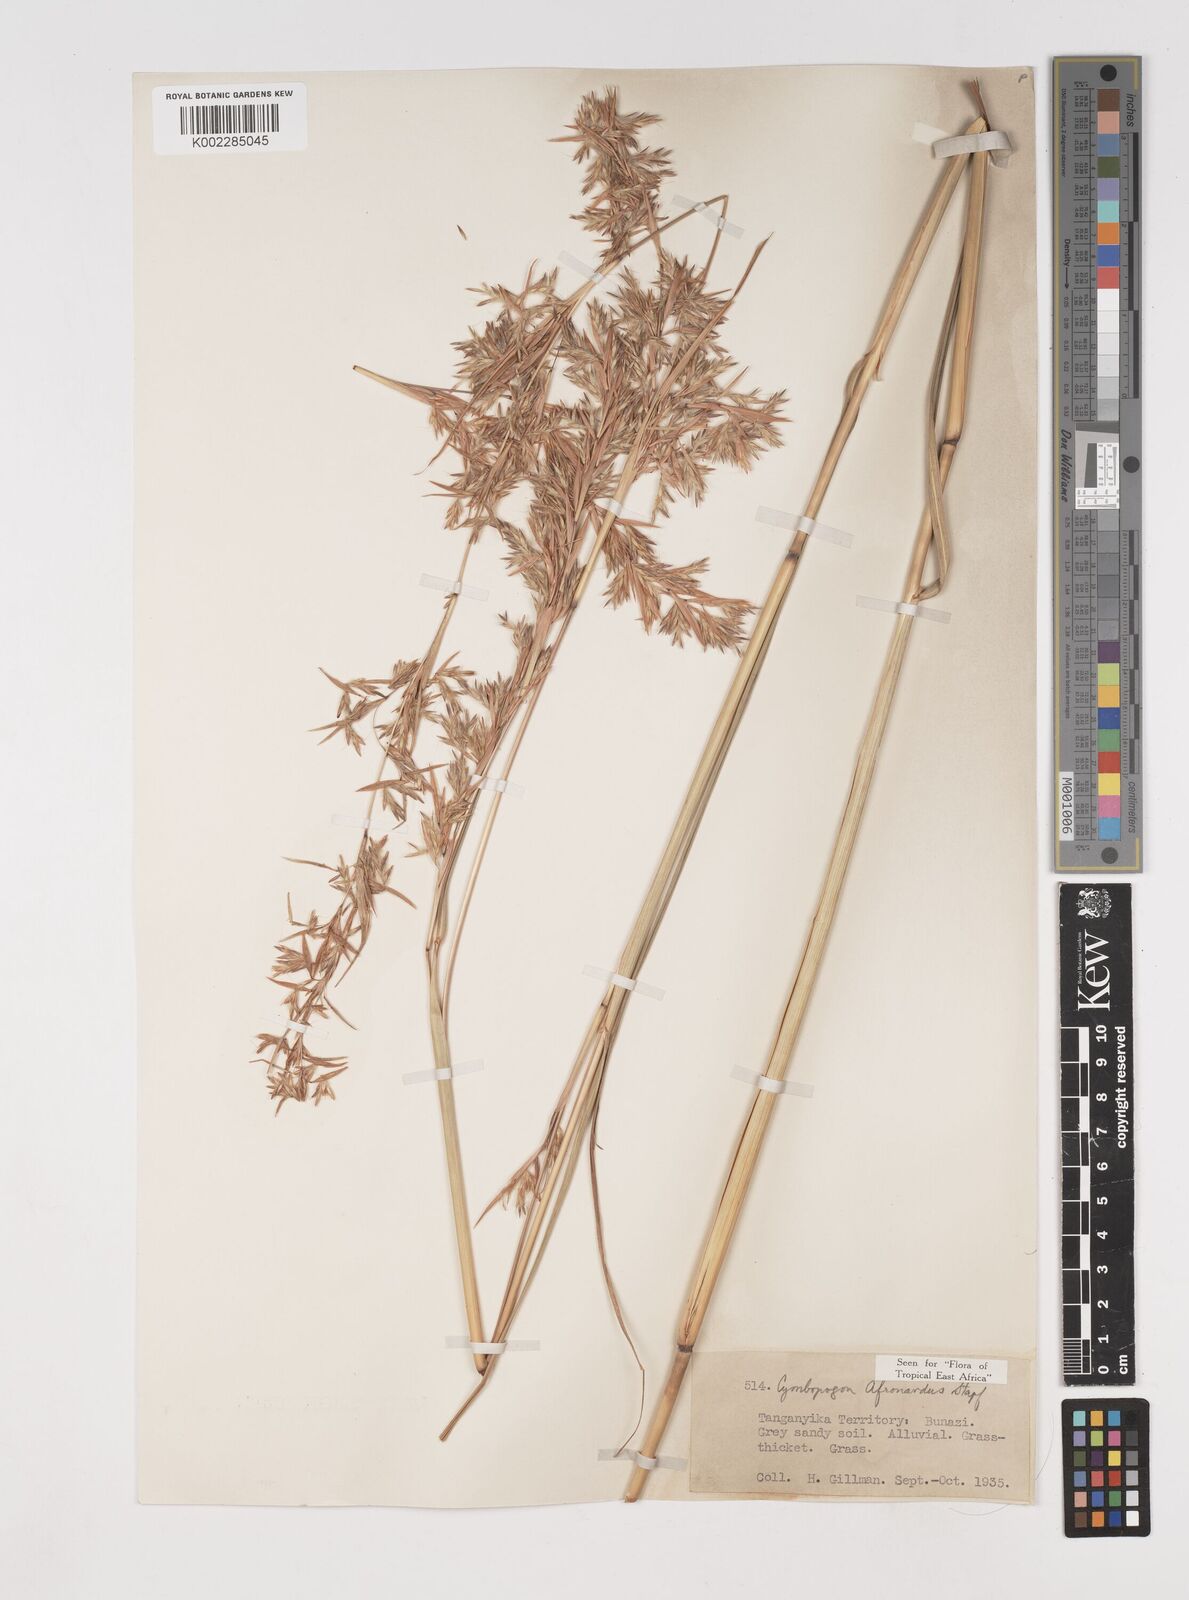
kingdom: Plantae
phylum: Tracheophyta
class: Liliopsida
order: Poales
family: Poaceae
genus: Cymbopogon
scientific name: Cymbopogon nardus
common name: Giant turpentine grass
